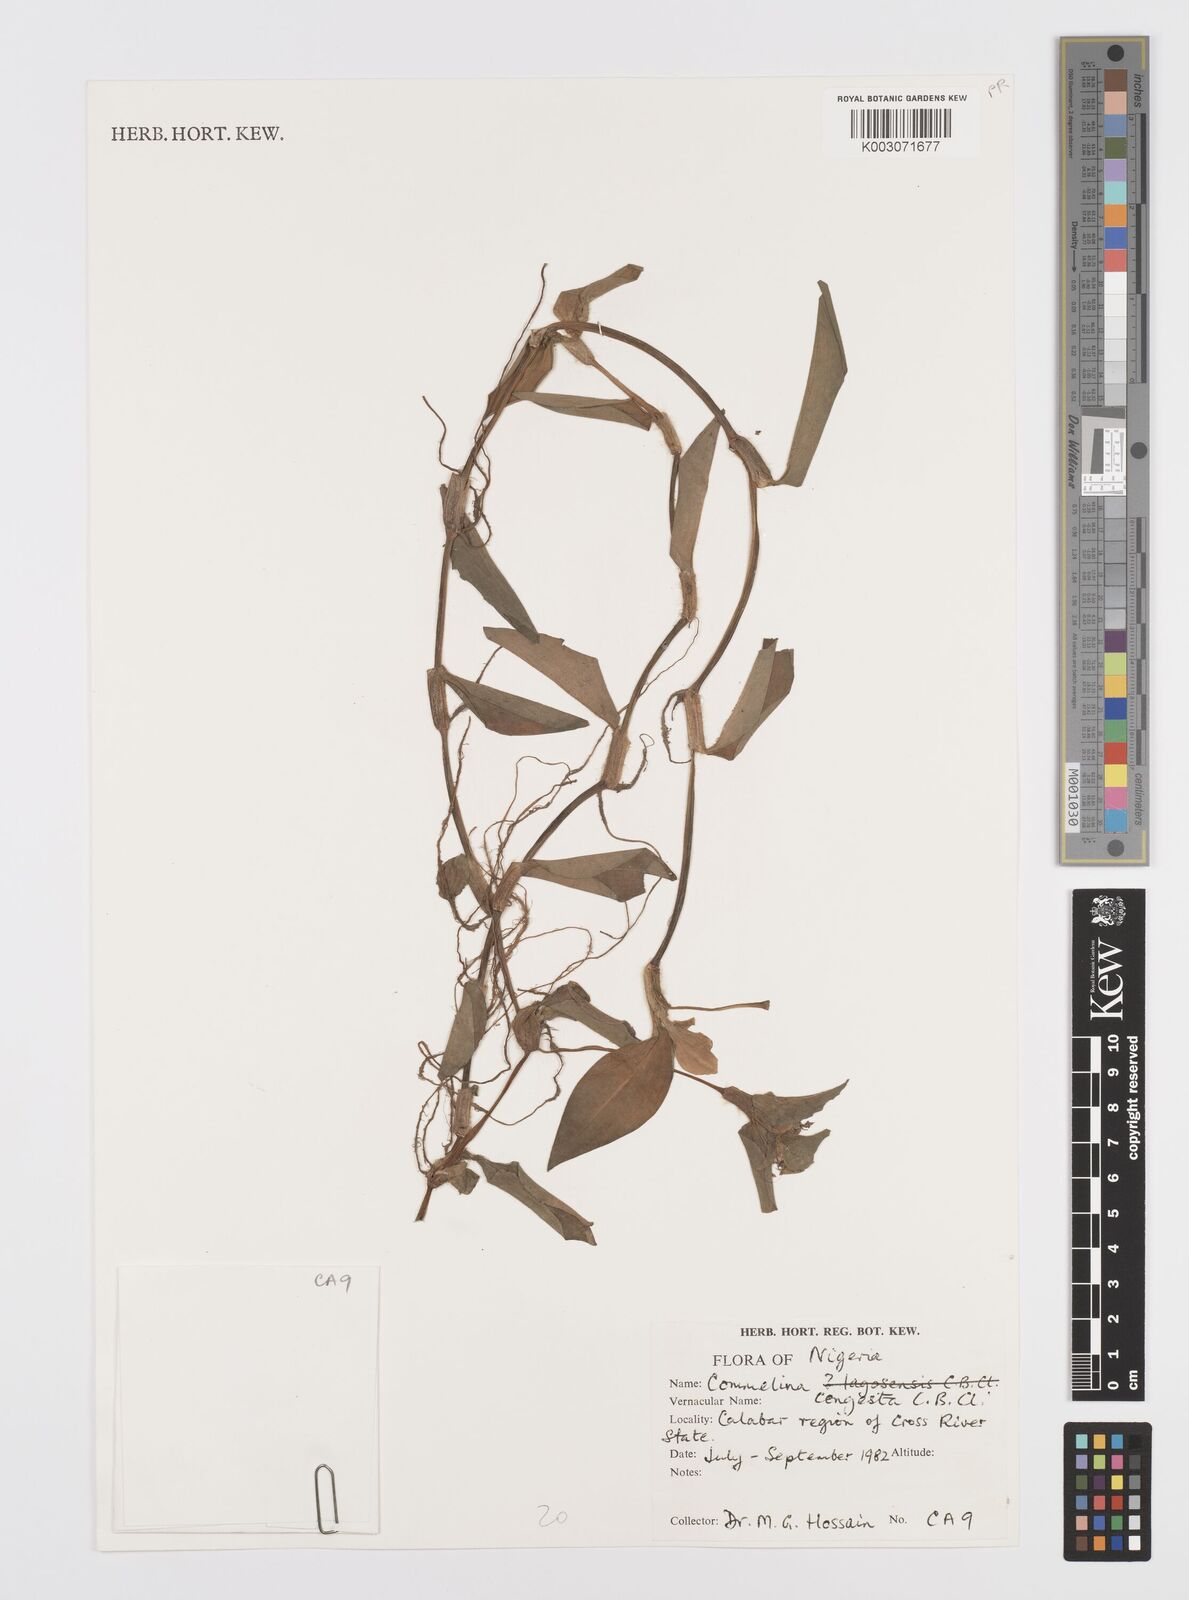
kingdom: Plantae
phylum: Tracheophyta
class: Liliopsida
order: Commelinales
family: Commelinaceae
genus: Commelina
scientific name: Commelina congesta
